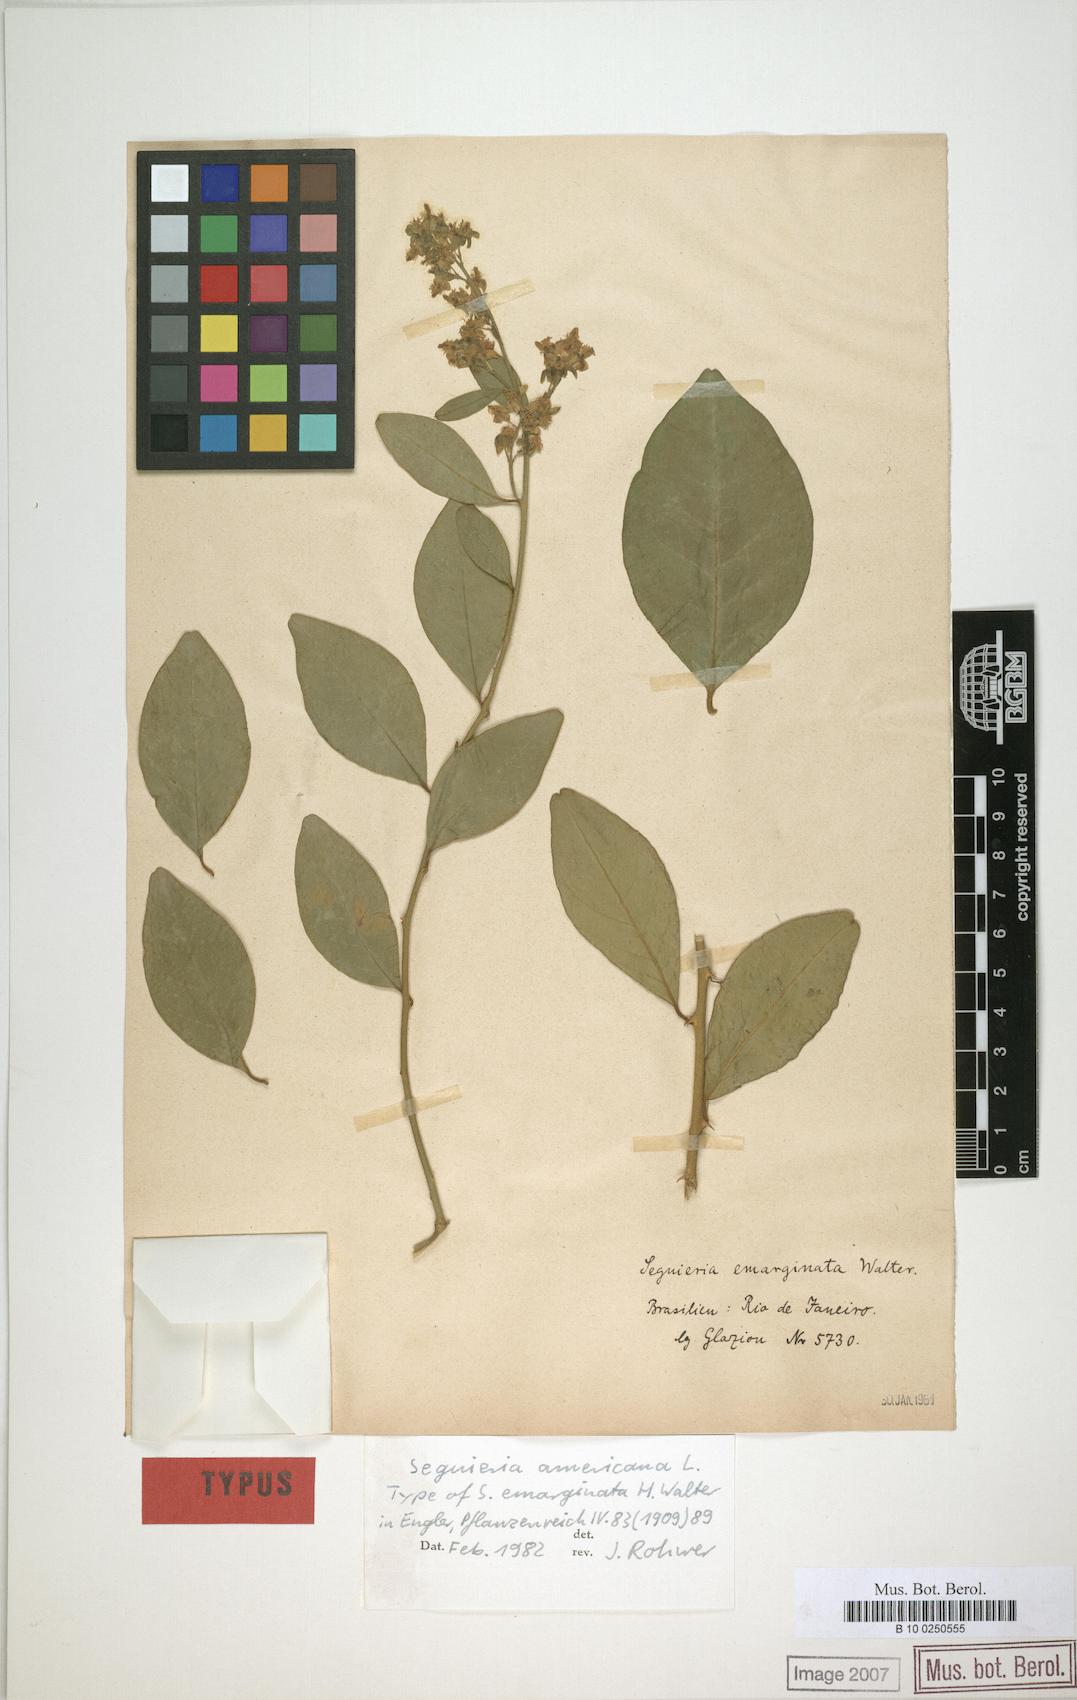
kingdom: Plantae
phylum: Tracheophyta
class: Magnoliopsida
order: Caryophyllales
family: Phytolaccaceae
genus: Seguieria
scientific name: Seguieria americana
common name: American seguieria
